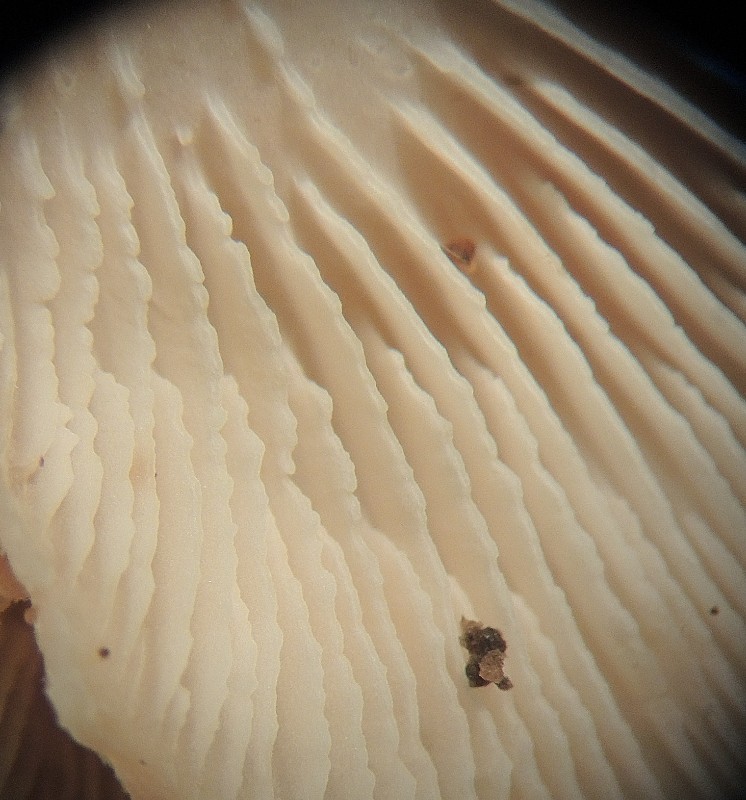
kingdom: Fungi
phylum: Basidiomycota
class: Agaricomycetes
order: Russulales
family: Auriscalpiaceae
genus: Lentinellus
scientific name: Lentinellus ursinus
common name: børstehåret savbladhat
